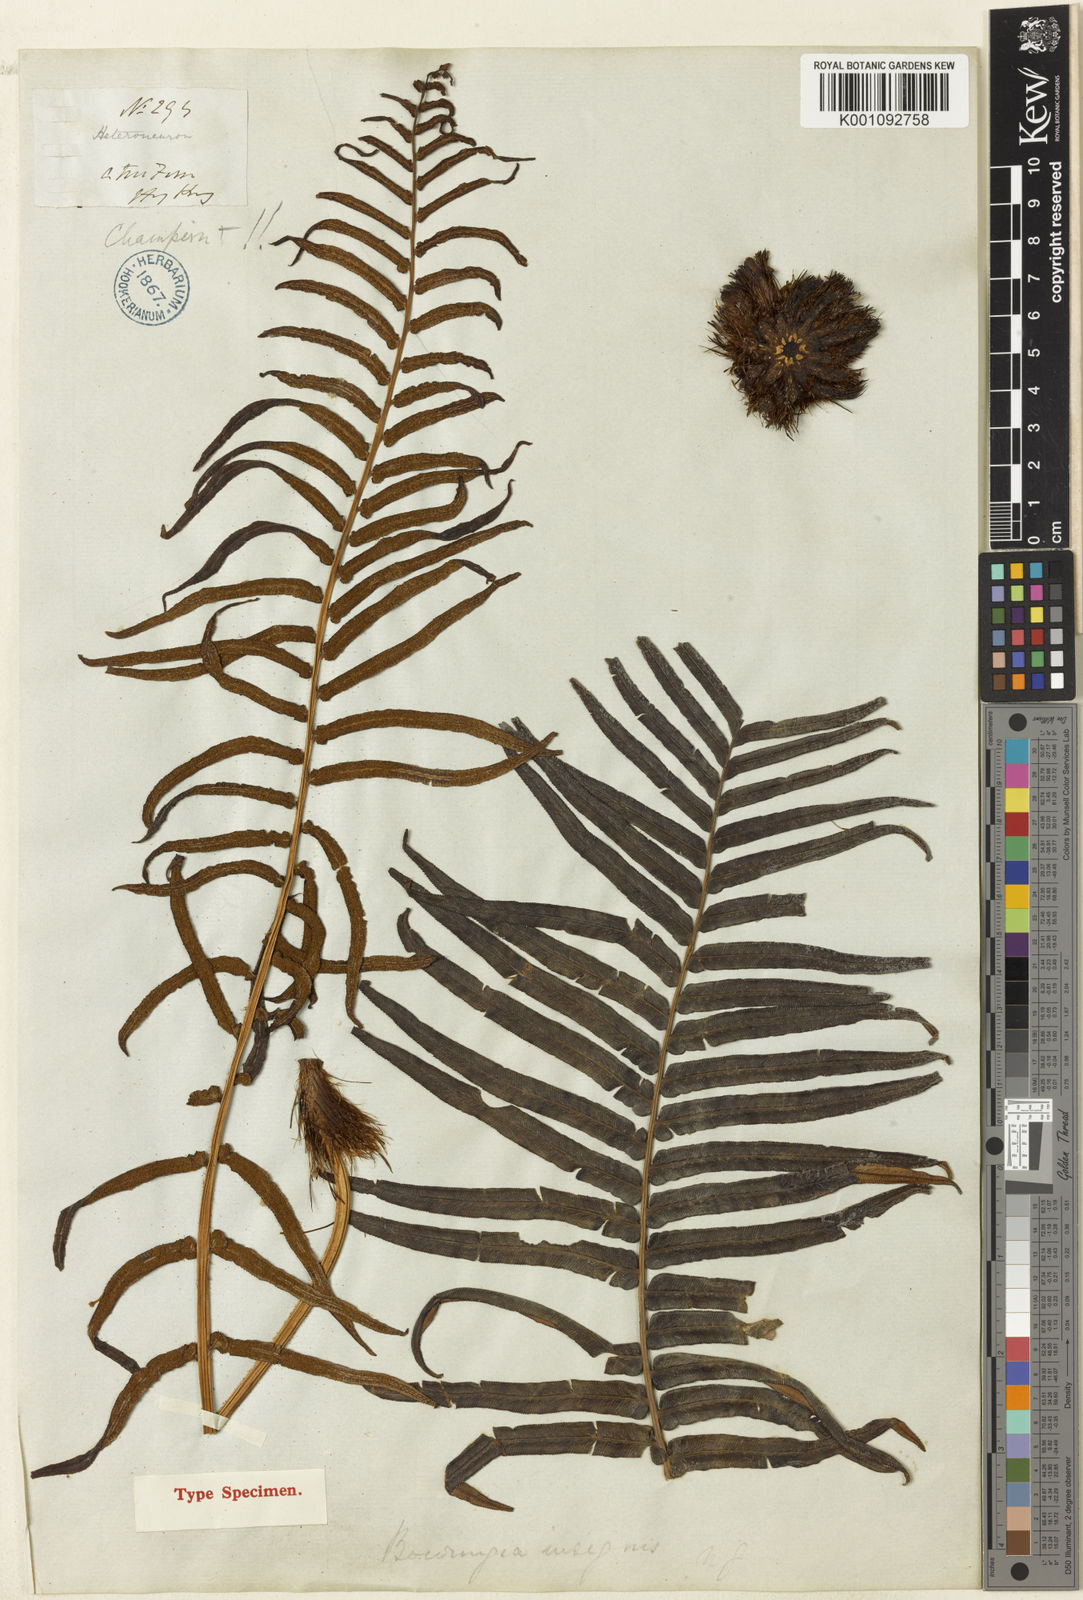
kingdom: Plantae
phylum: Tracheophyta
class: Polypodiopsida
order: Polypodiales
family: Blechnaceae
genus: Brainea
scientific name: Brainea insignis
